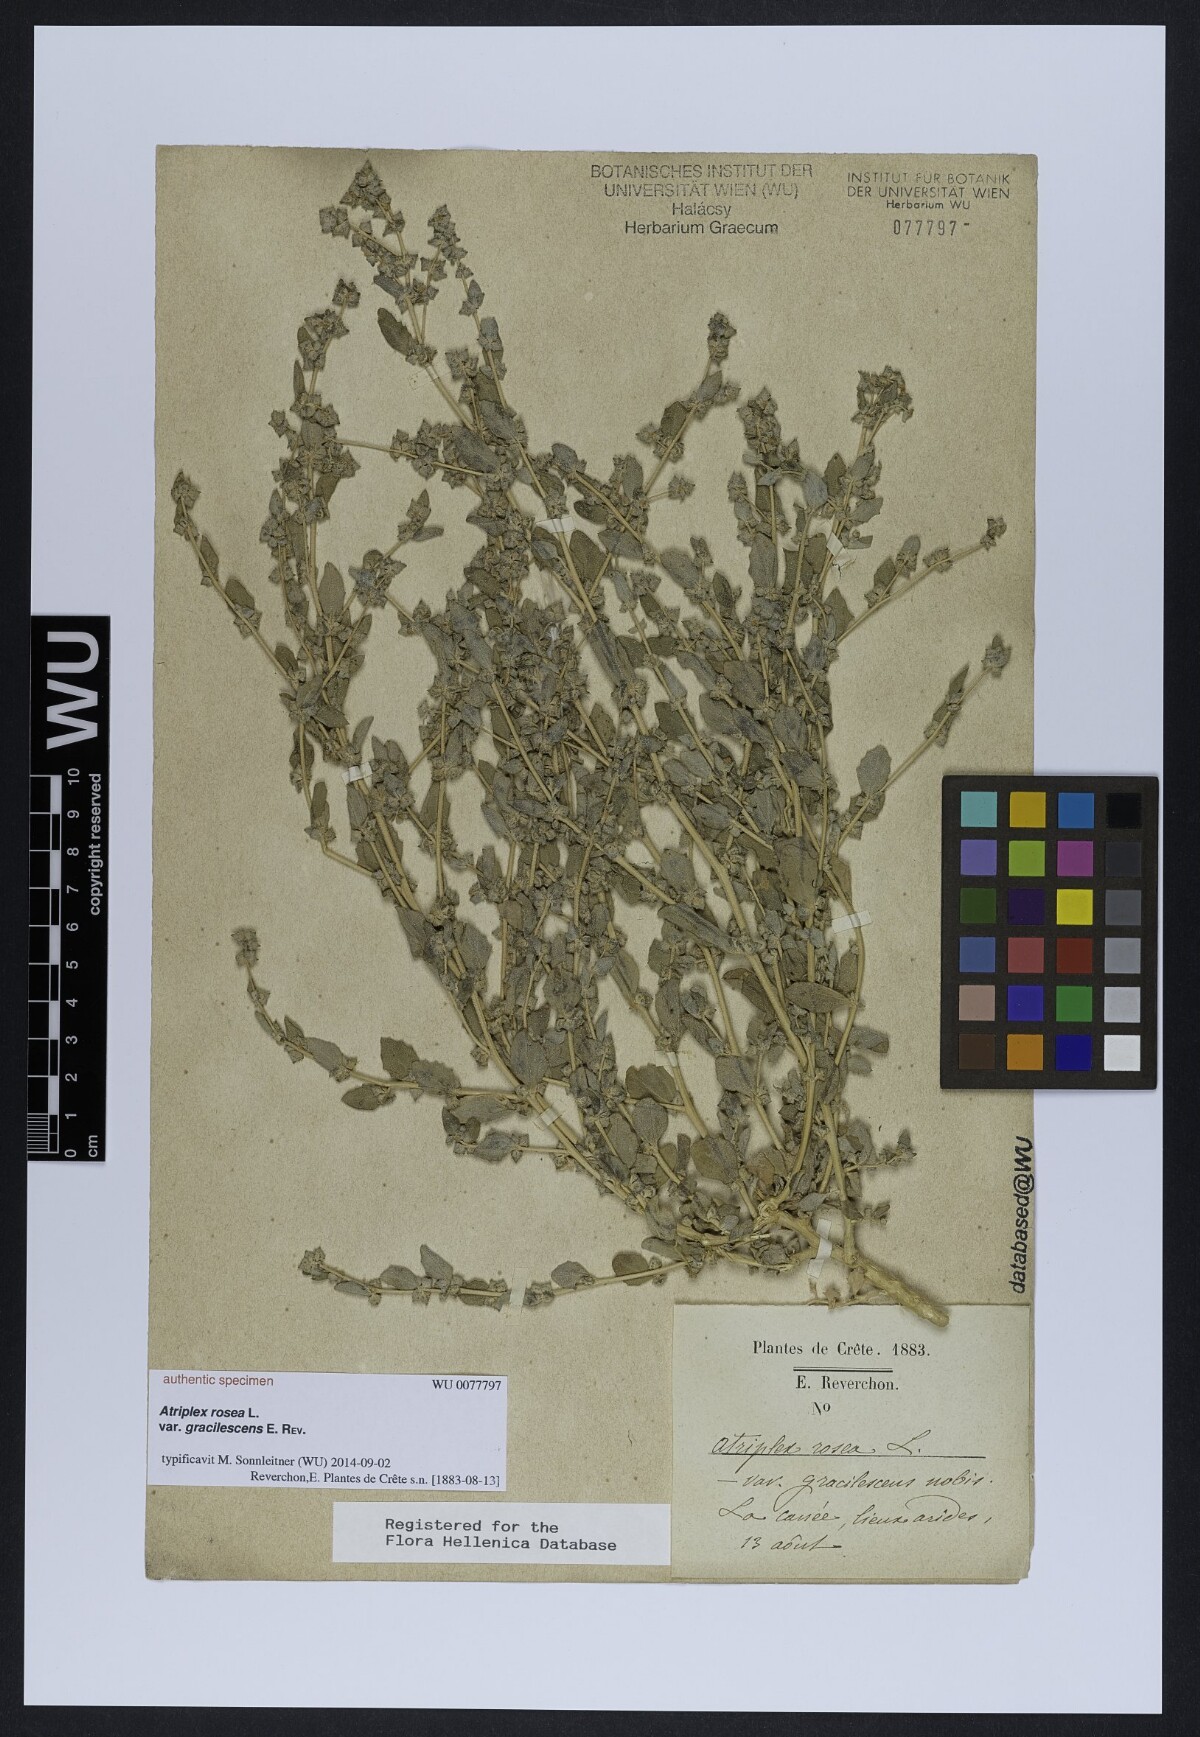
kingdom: Plantae
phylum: Tracheophyta
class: Magnoliopsida
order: Caryophyllales
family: Amaranthaceae
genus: Atriplex
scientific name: Atriplex rosea
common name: Tumbling saltweed
